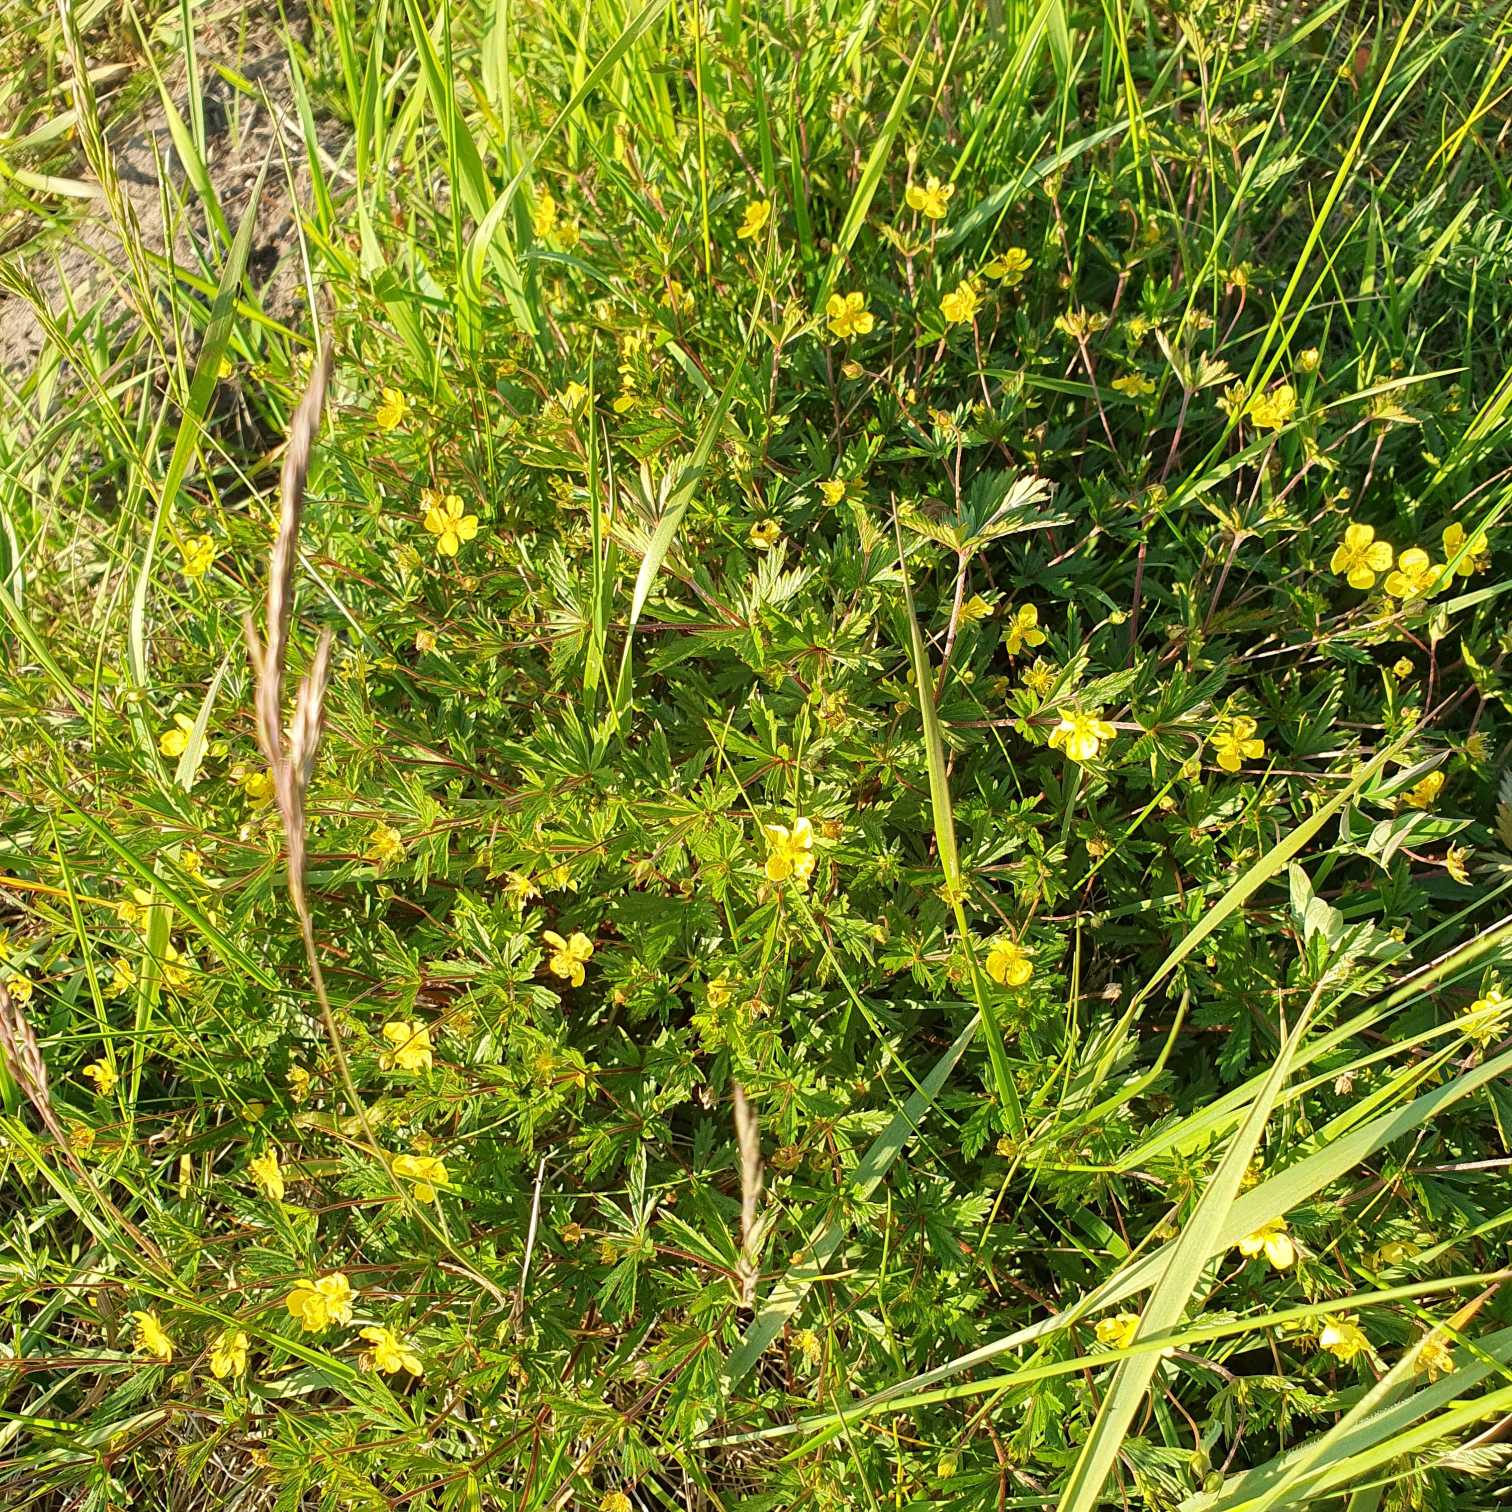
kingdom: Plantae
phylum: Tracheophyta
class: Magnoliopsida
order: Rosales
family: Rosaceae
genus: Potentilla
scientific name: Potentilla erecta
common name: Tormentil
